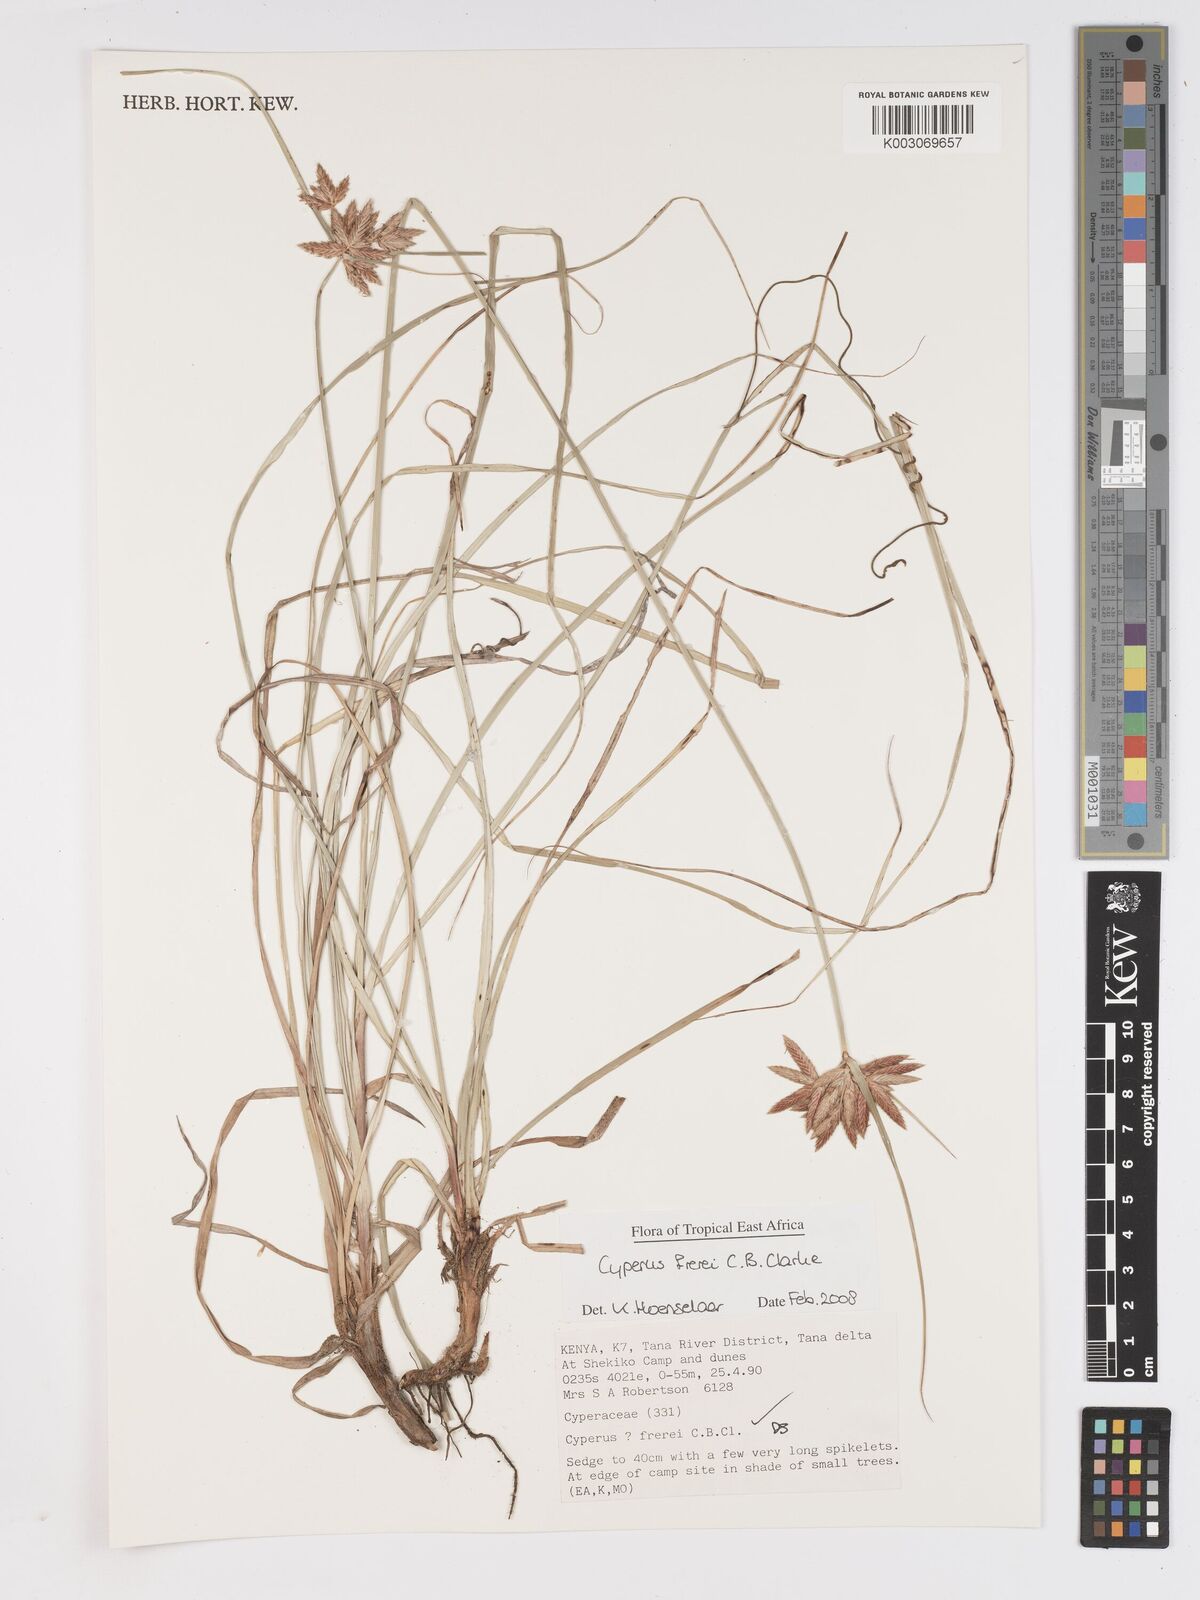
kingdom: Plantae
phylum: Tracheophyta
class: Liliopsida
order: Poales
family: Cyperaceae
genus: Cyperus
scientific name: Cyperus crassipes
